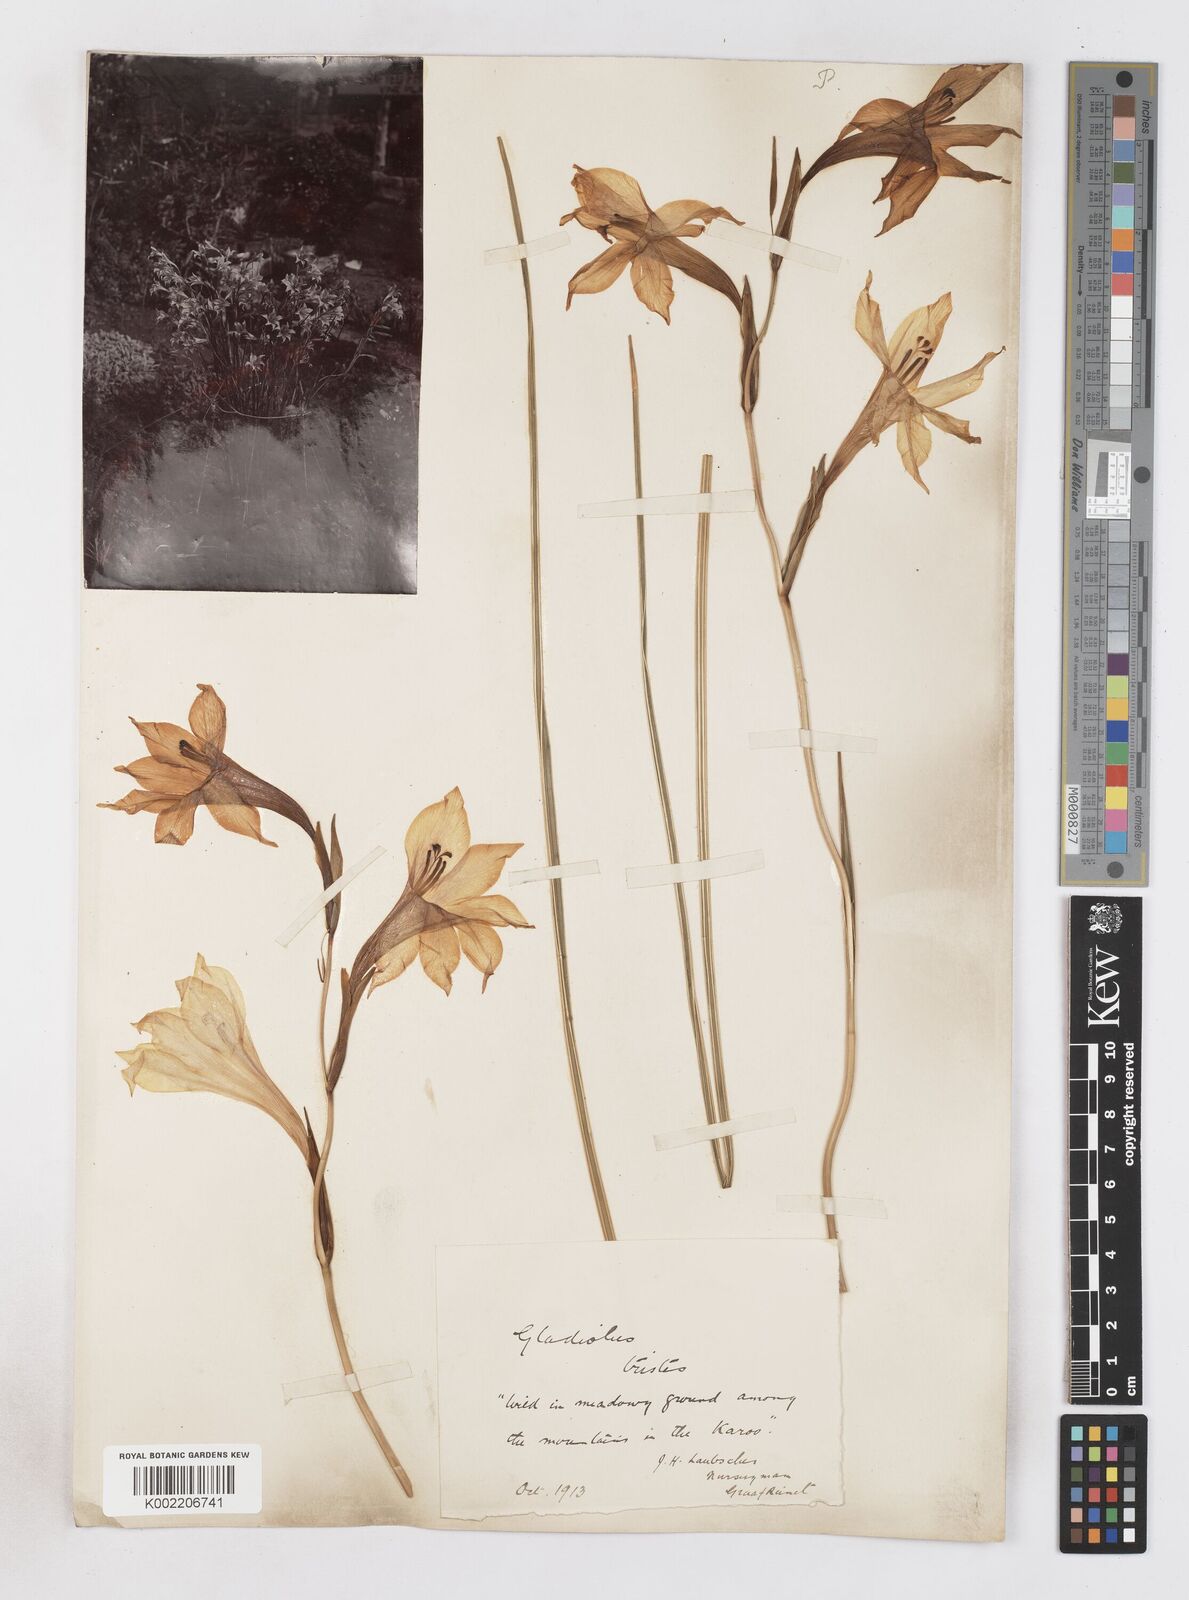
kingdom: Plantae
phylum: Tracheophyta
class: Liliopsida
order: Asparagales
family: Iridaceae
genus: Gladiolus
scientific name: Gladiolus tristis
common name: Ever-flowering gladiolus
